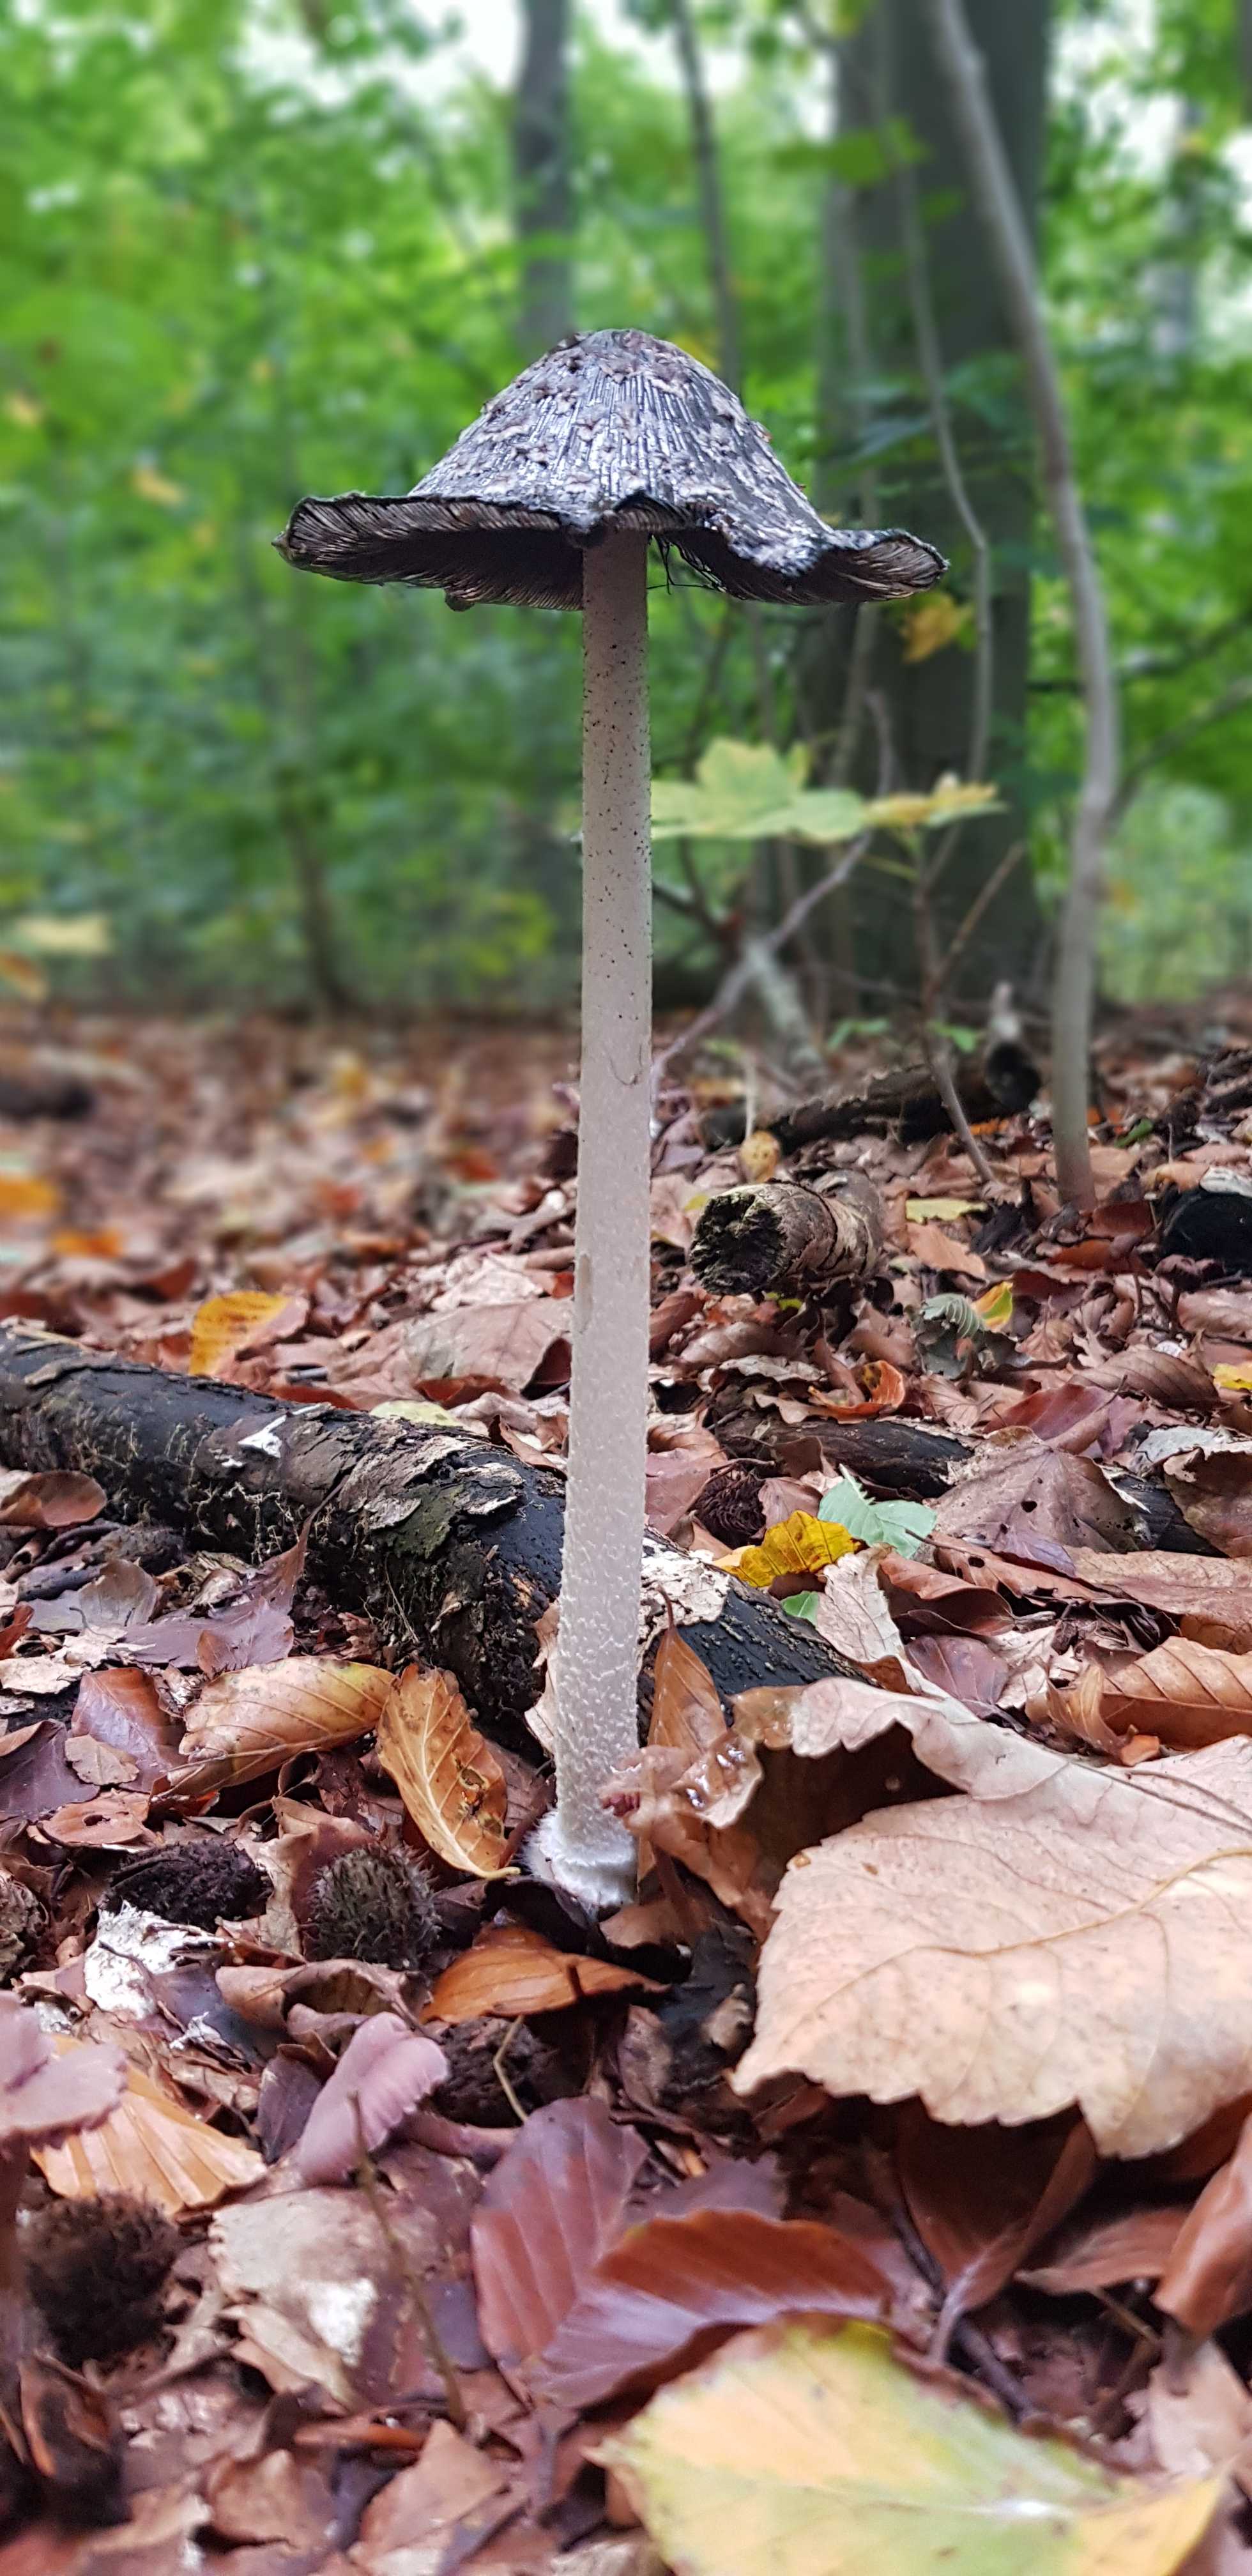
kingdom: Fungi
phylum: Basidiomycota
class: Agaricomycetes
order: Agaricales
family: Psathyrellaceae
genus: Coprinopsis
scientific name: Coprinopsis picacea
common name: skade-blækhat
